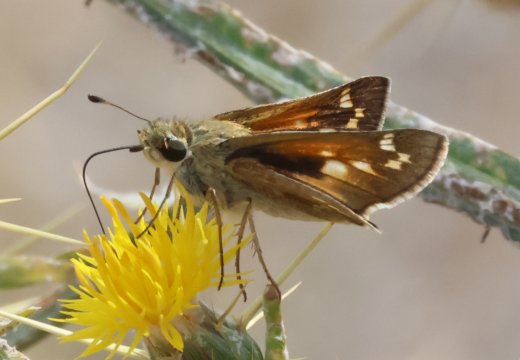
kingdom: Animalia
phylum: Arthropoda
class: Insecta
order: Lepidoptera
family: Hesperiidae
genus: Polites
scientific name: Polites mystic
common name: Sonoran Skipper
